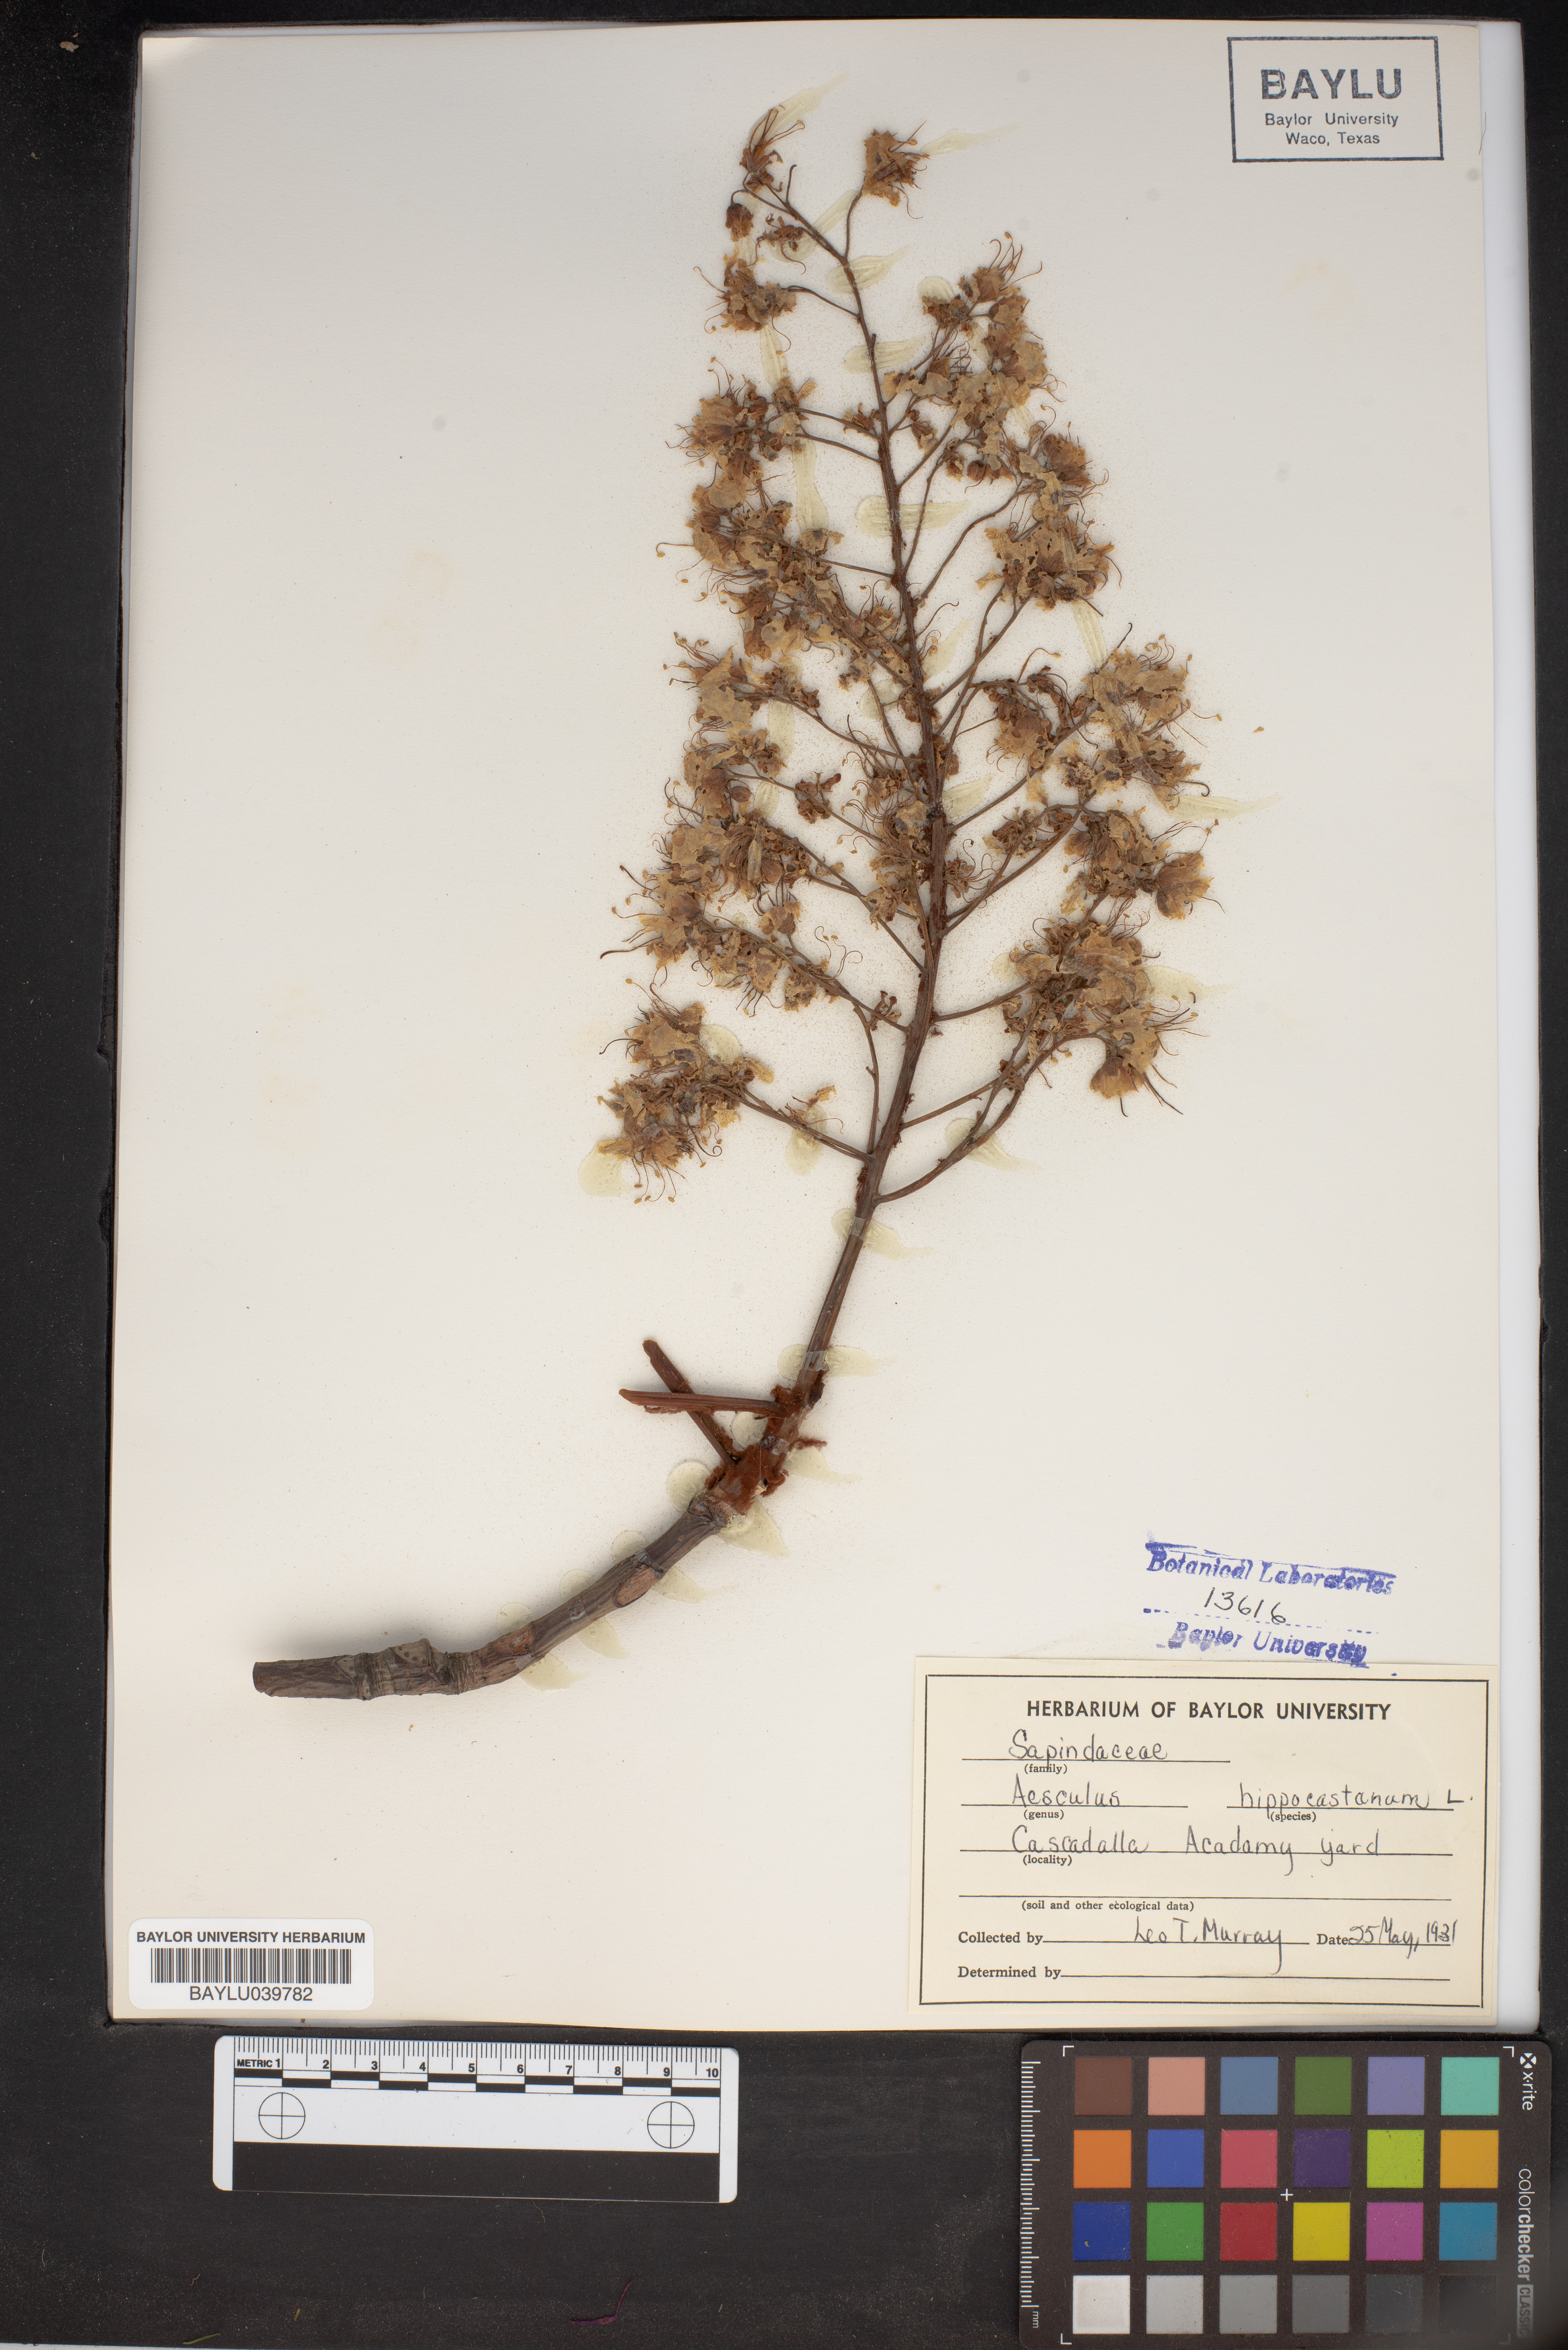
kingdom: Plantae
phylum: Tracheophyta
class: Magnoliopsida
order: Sapindales
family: Sapindaceae
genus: Aesculus
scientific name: Aesculus hippocastanum
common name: Horse-chestnut
